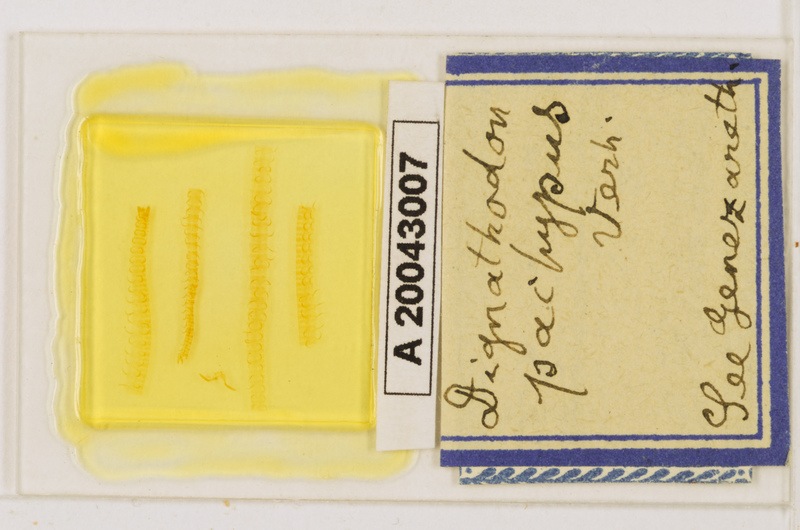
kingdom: Animalia
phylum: Arthropoda
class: Chilopoda
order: Geophilomorpha
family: Dignathodontidae
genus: Dignathodon
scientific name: Dignathodon pachypus
